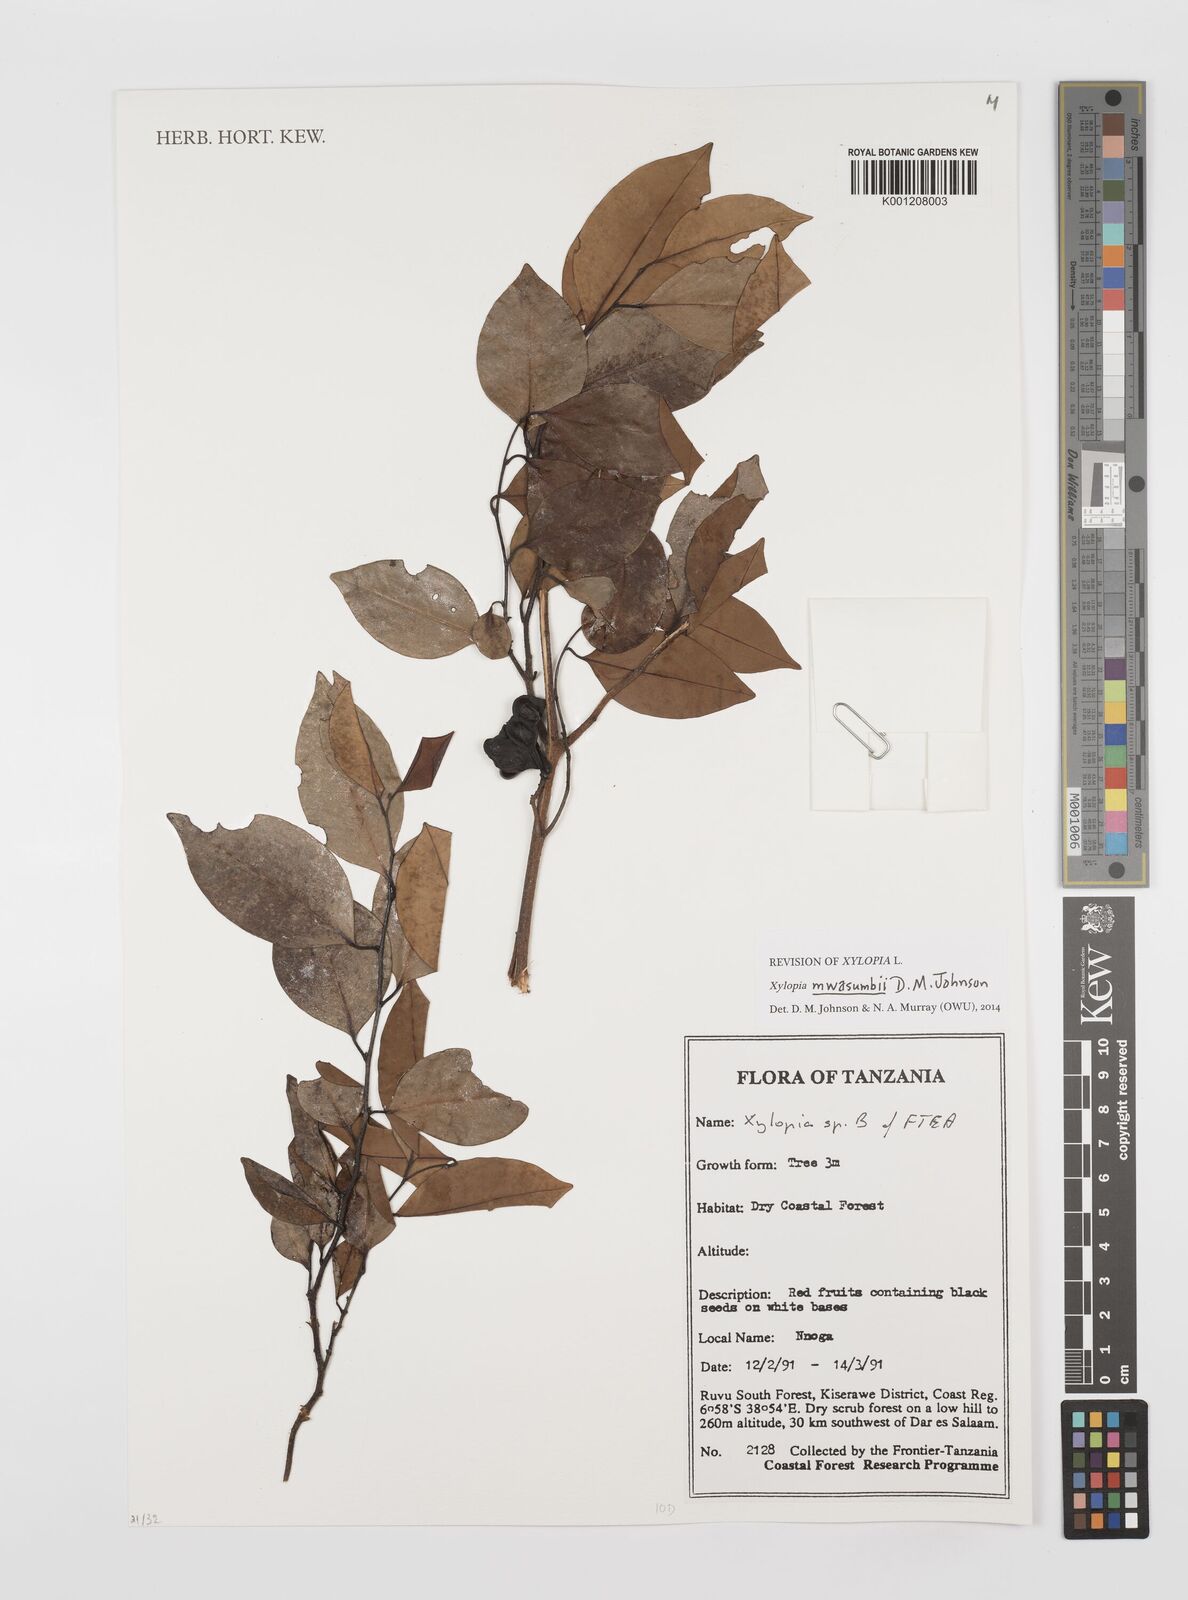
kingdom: Plantae
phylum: Tracheophyta
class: Magnoliopsida
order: Magnoliales
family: Annonaceae
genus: Xylopia
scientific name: Xylopia mwasumbii
